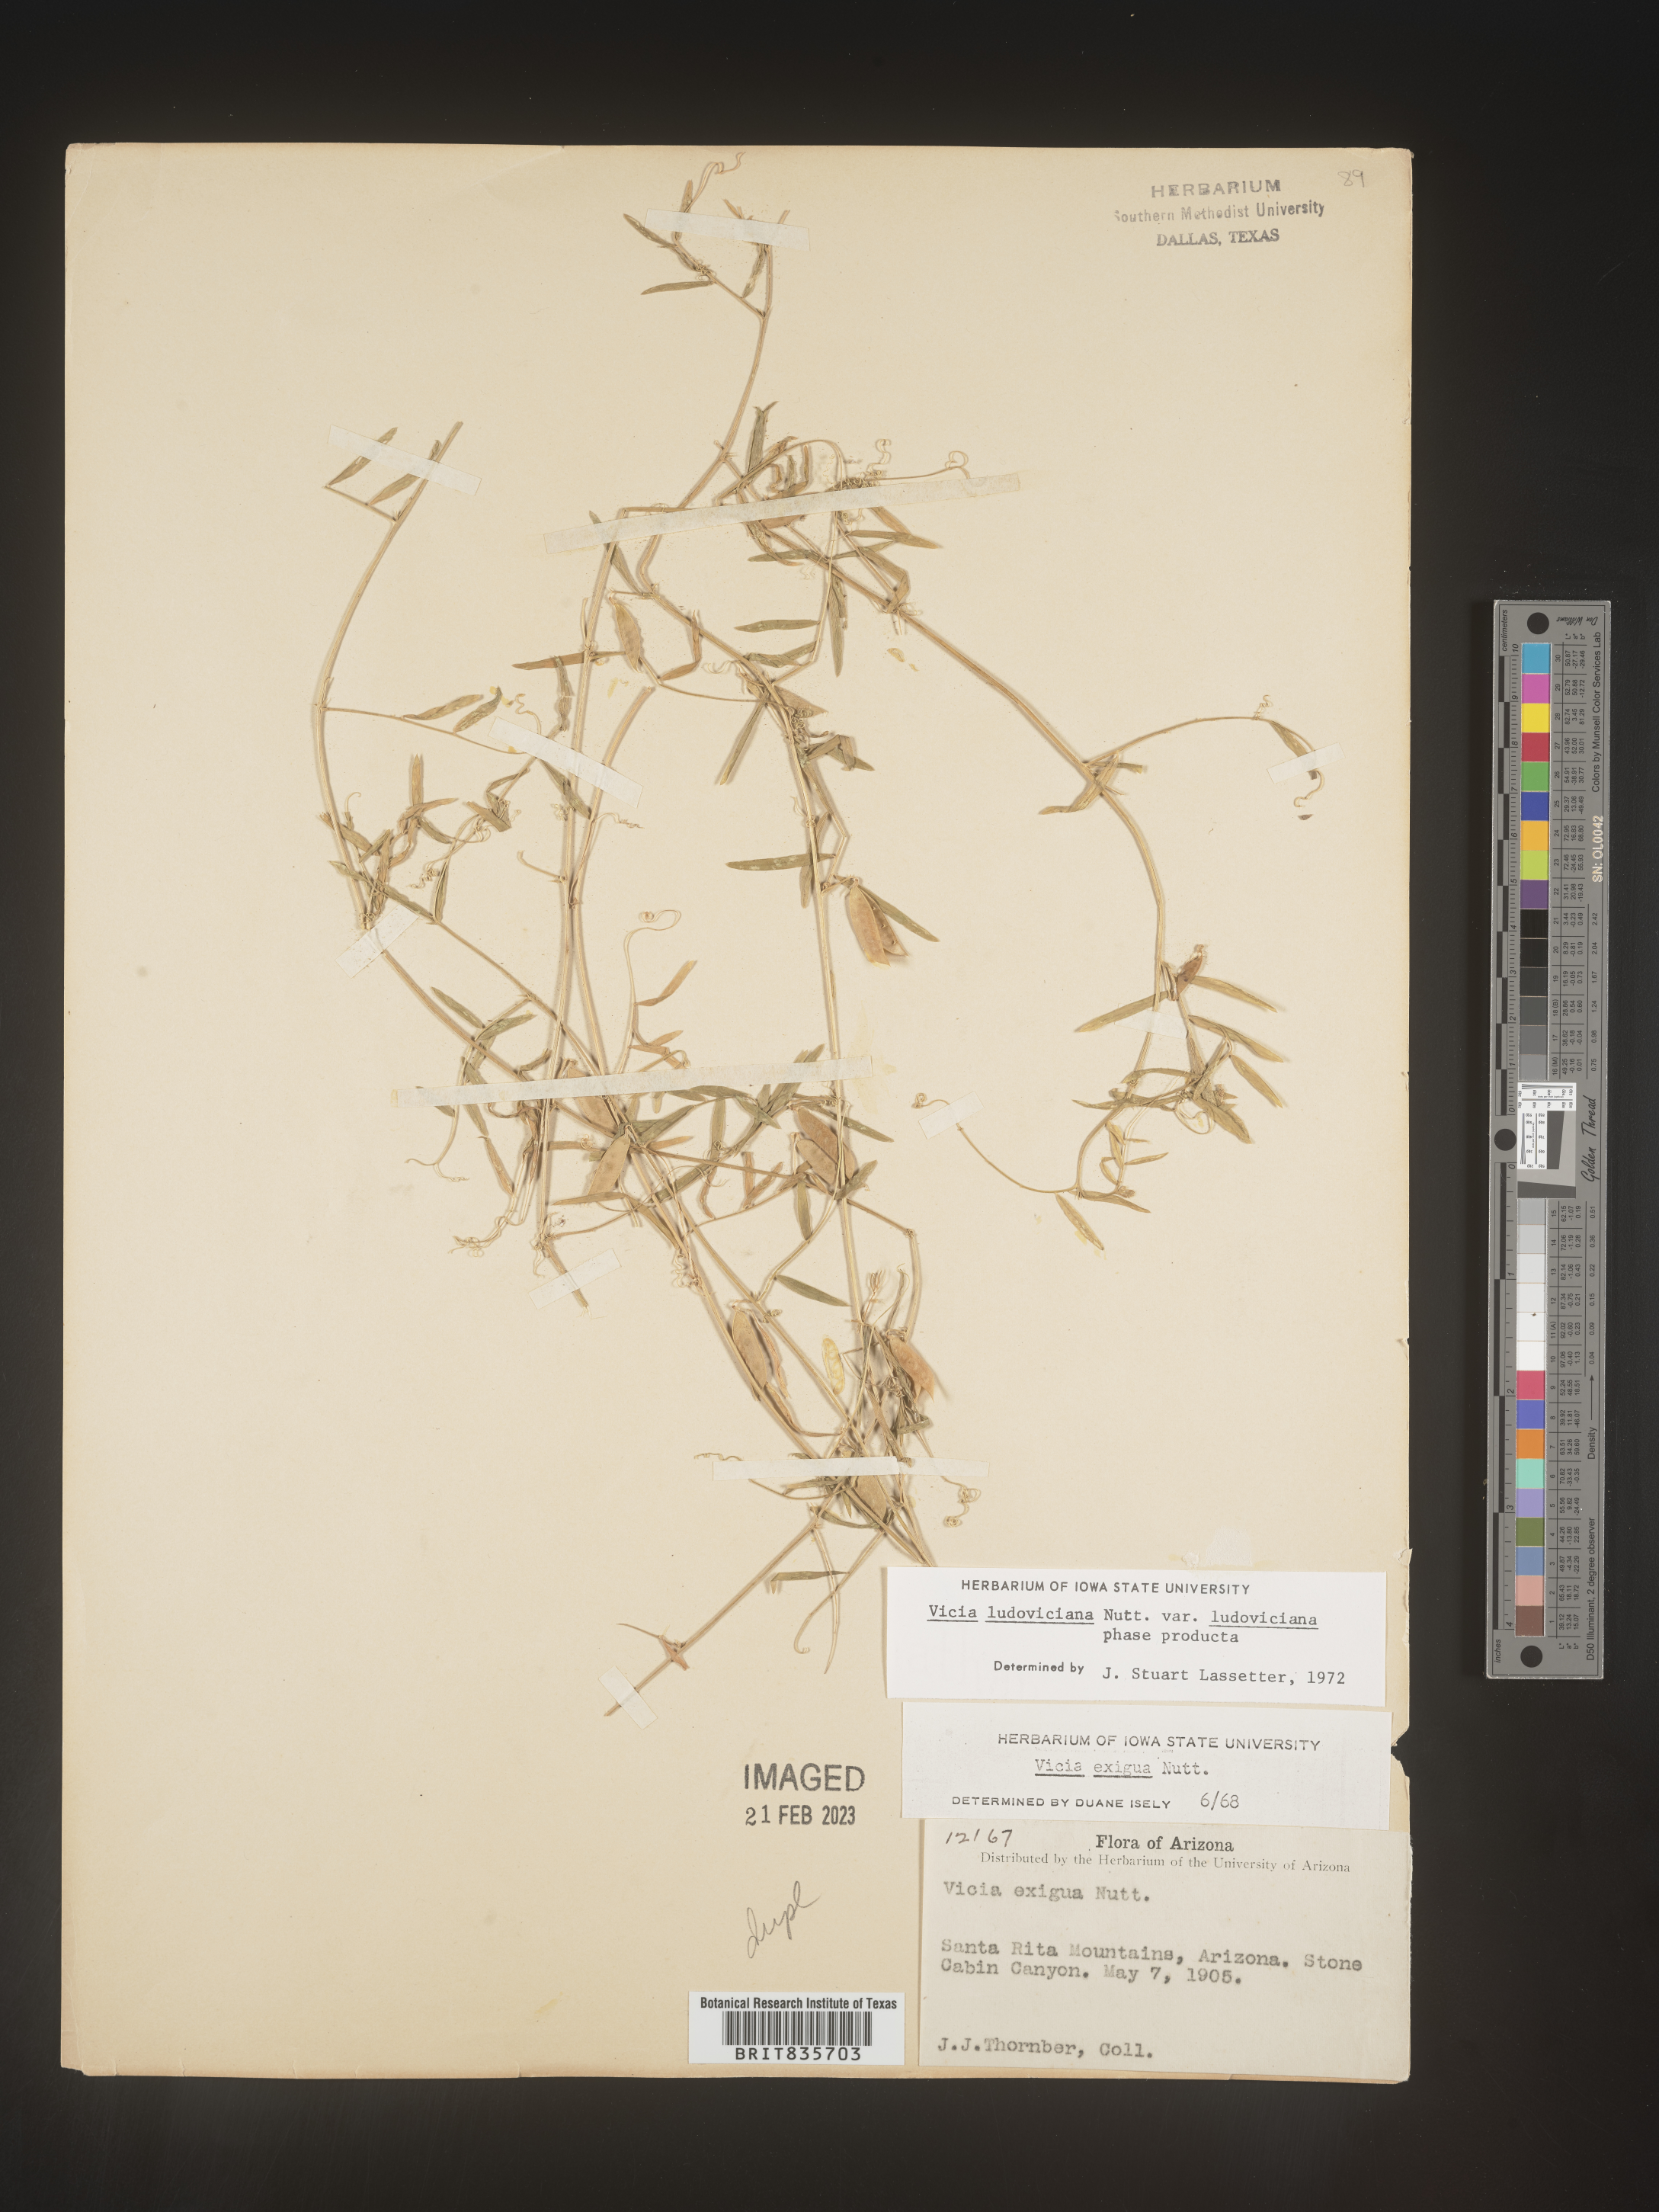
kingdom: Plantae
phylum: Tracheophyta
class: Magnoliopsida
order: Fabales
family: Fabaceae
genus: Vicia
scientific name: Vicia ludoviciana
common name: Louisiana vetch
